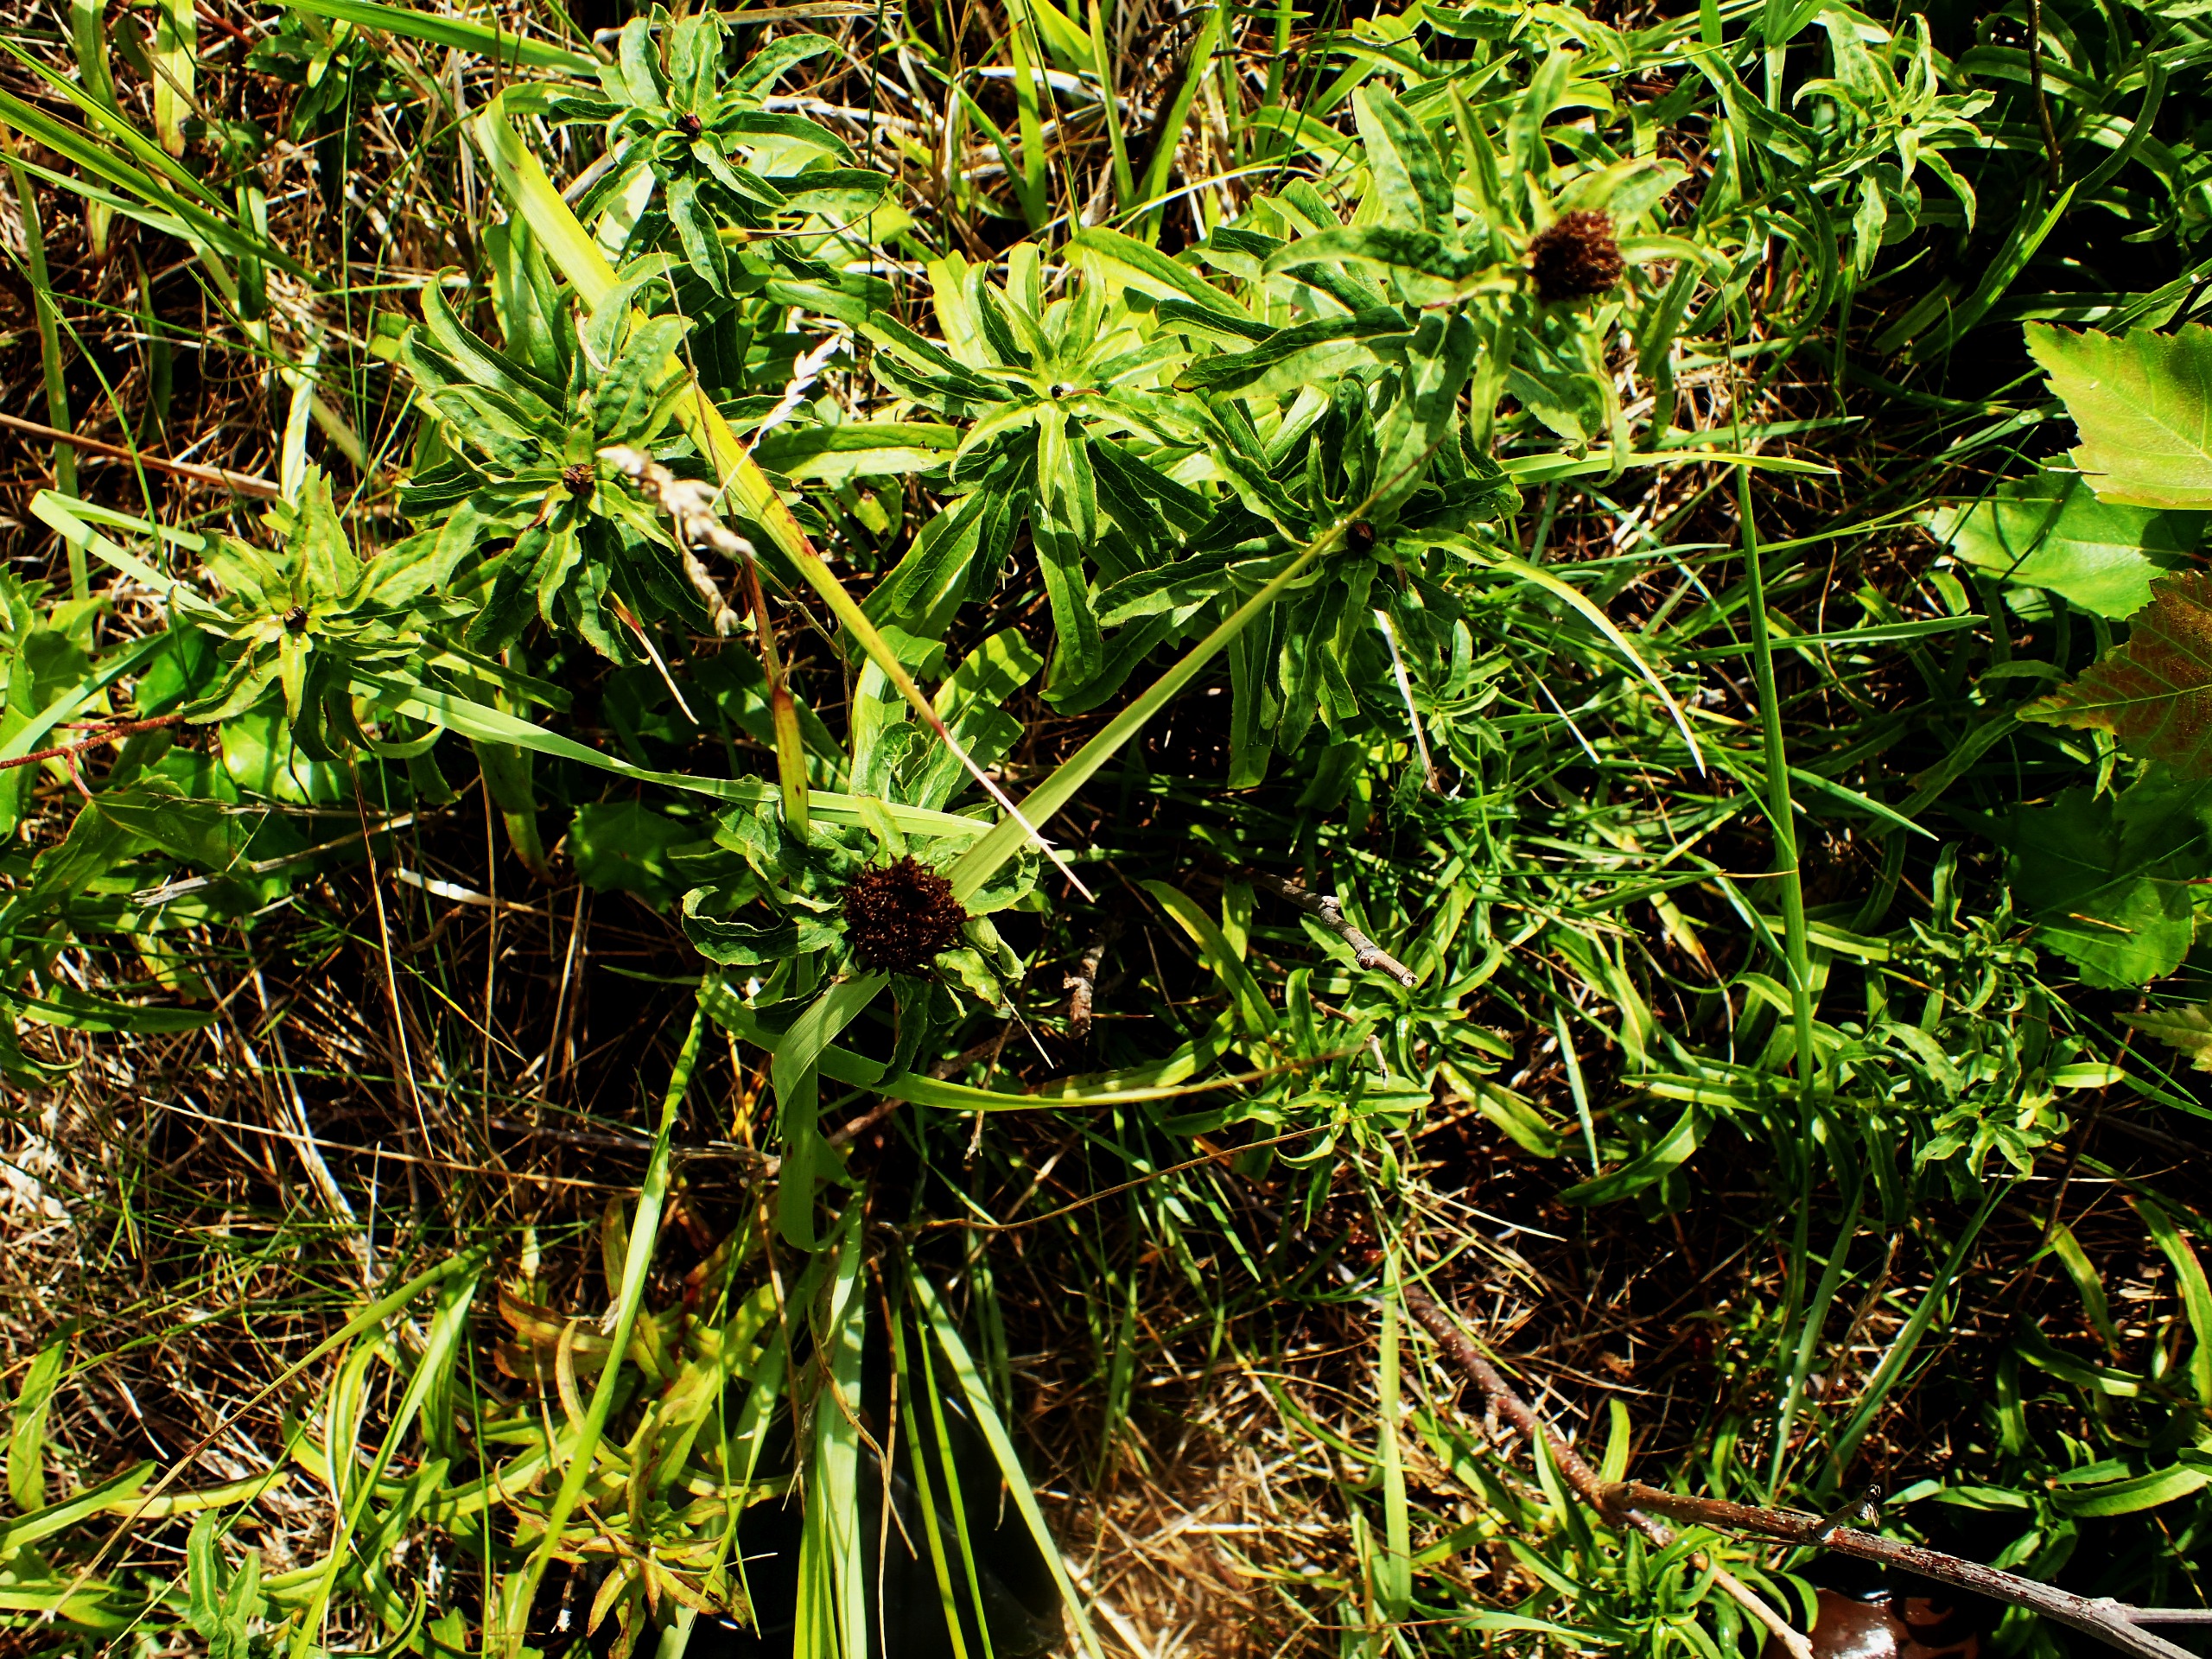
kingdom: Plantae
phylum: Tracheophyta
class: Magnoliopsida
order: Asterales
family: Asteraceae
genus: Pentanema
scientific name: Pentanema salicinum
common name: Pile-alant
